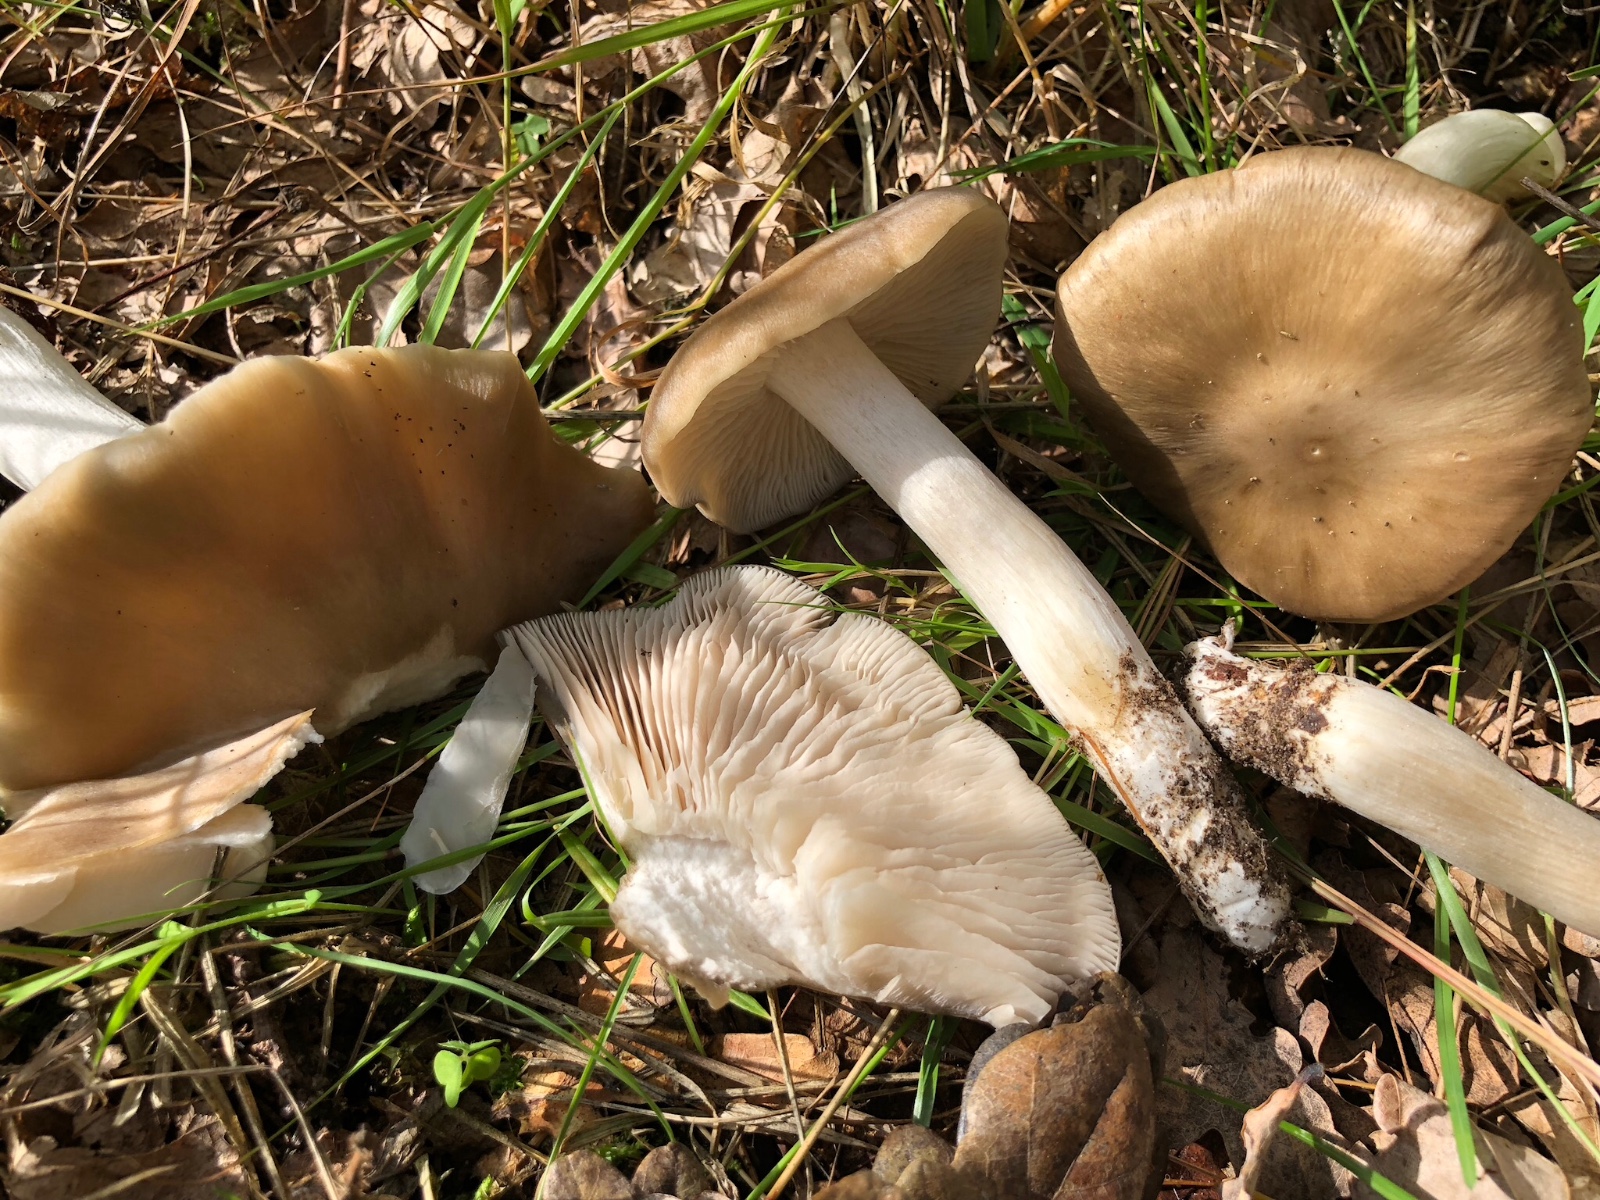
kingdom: Fungi
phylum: Basidiomycota
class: Agaricomycetes
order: Agaricales
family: Entolomataceae
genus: Entoloma
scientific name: Entoloma lividoalbum
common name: lysstokket rødblad
